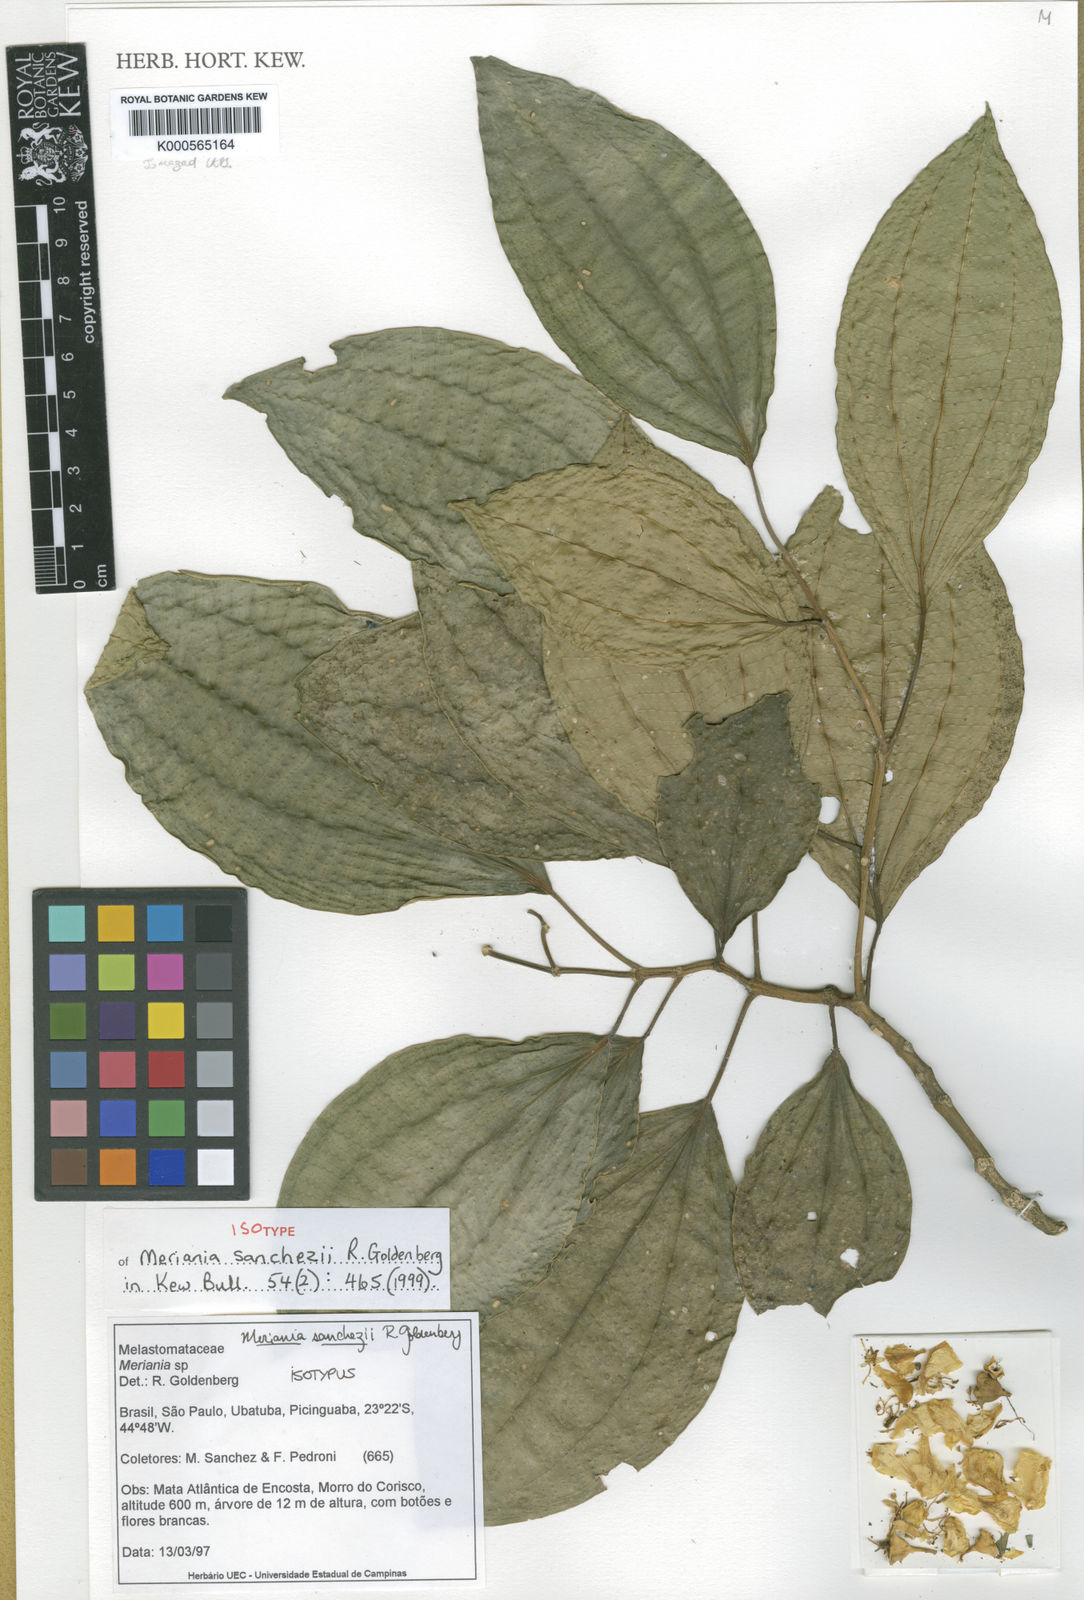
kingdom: Plantae
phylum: Tracheophyta
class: Magnoliopsida
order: Myrtales
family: Melastomataceae
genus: Meriania
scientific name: Meriania paniculata
